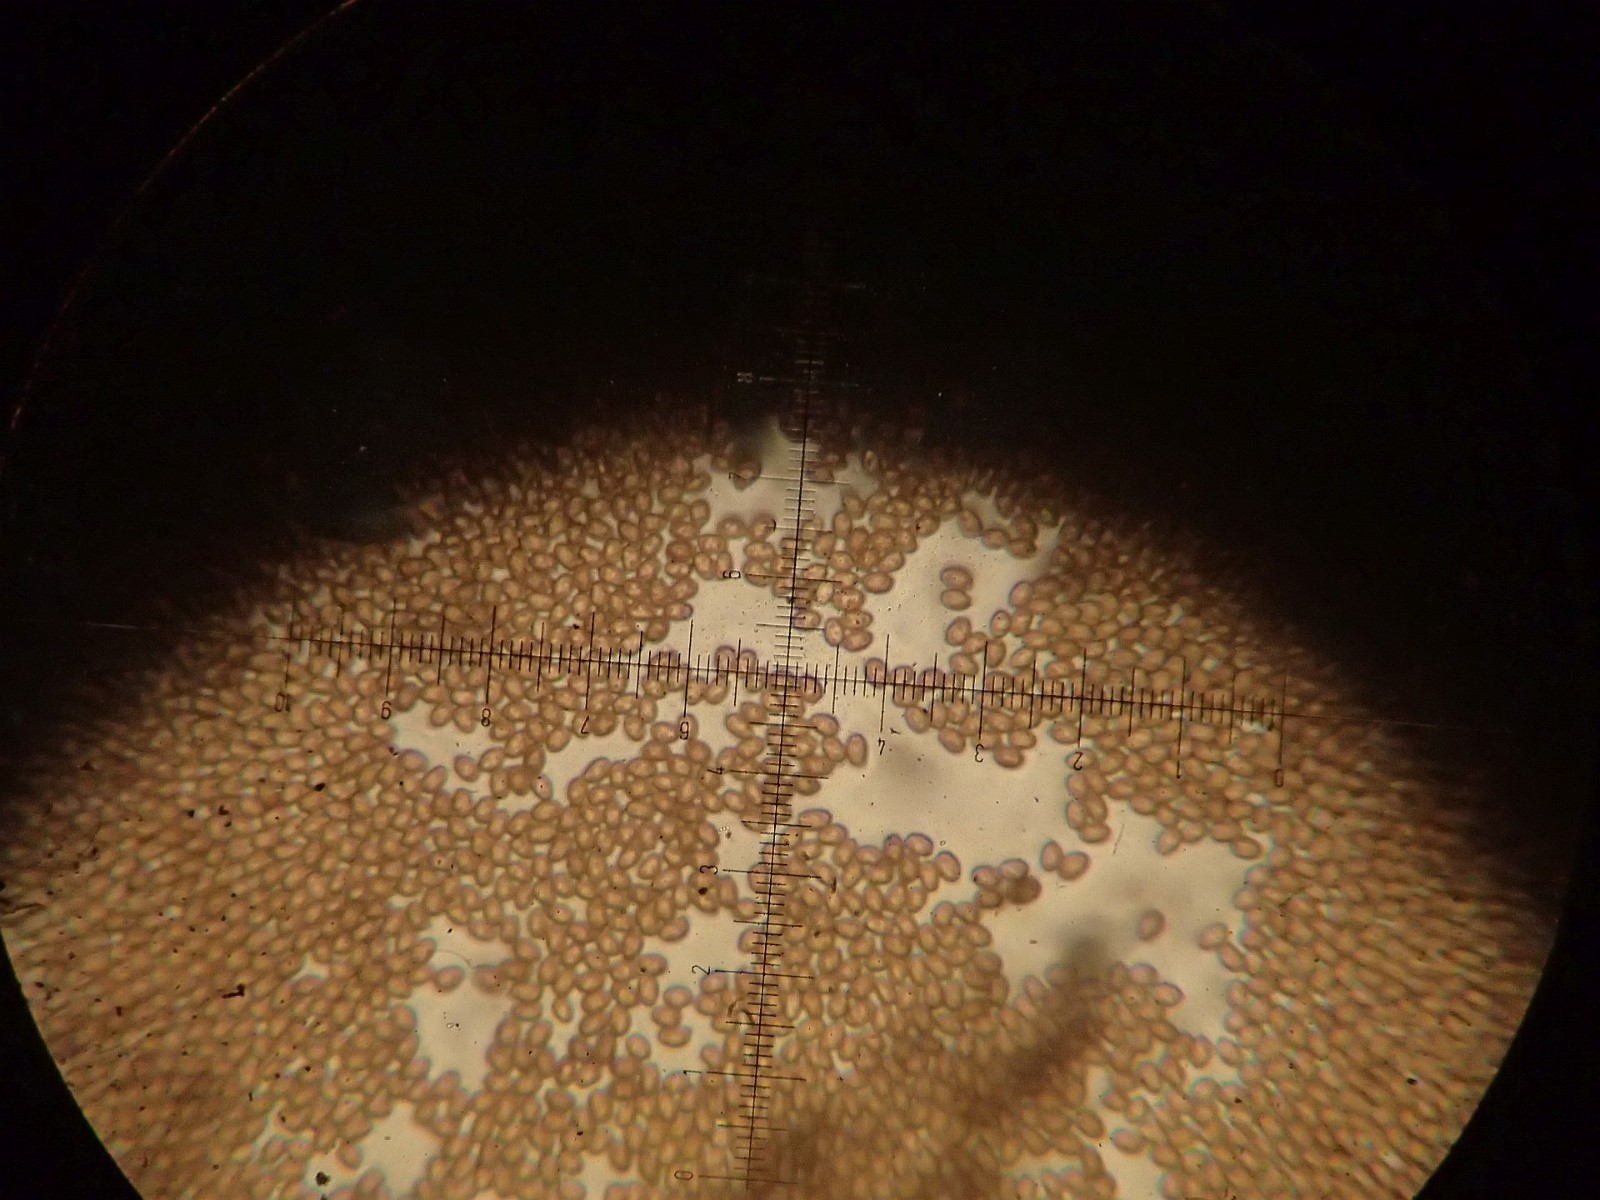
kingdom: Fungi
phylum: Basidiomycota
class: Agaricomycetes
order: Agaricales
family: Agaricaceae
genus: Agaricus
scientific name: Agaricus arvensis
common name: ager-champignon
